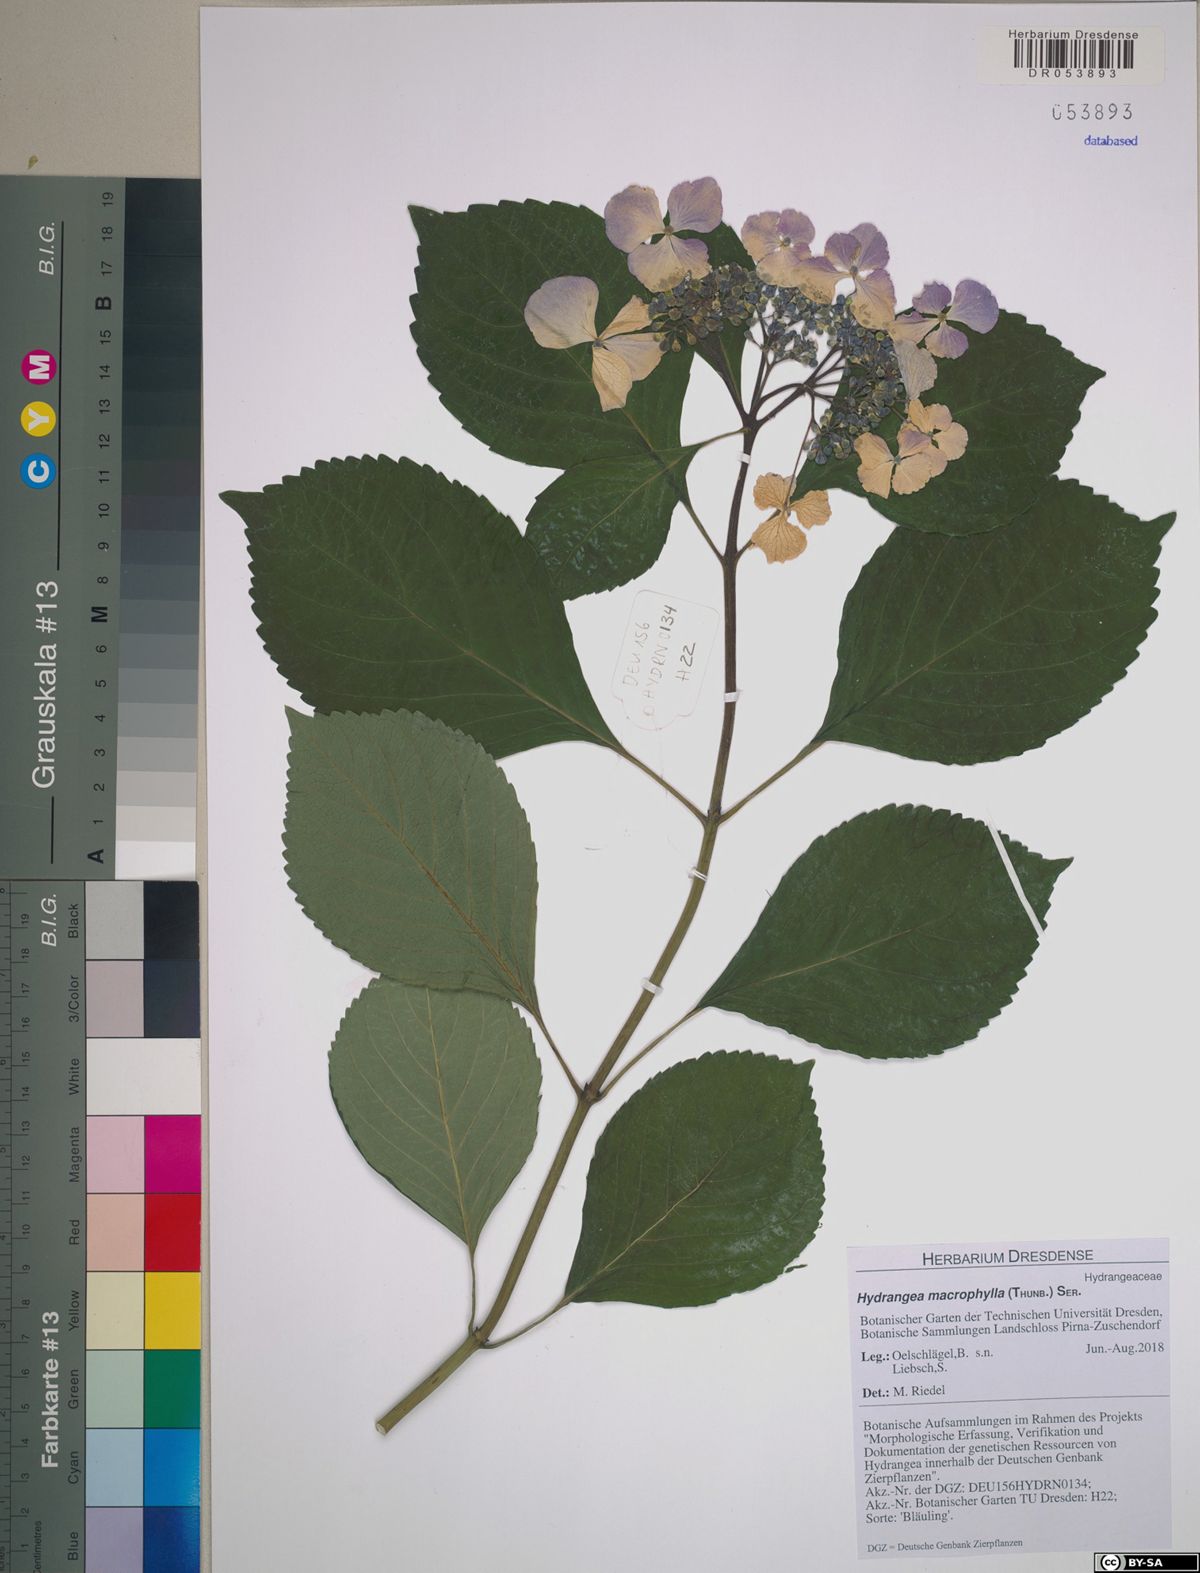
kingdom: Plantae
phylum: Tracheophyta
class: Magnoliopsida
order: Cornales
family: Hydrangeaceae
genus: Hydrangea
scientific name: Hydrangea macrophylla
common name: Hydrangea
